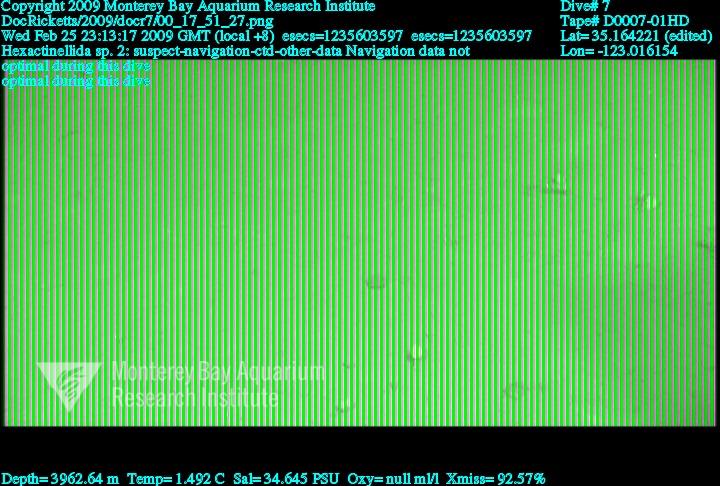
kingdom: Animalia
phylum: Porifera
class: Hexactinellida
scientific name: Hexactinellida
